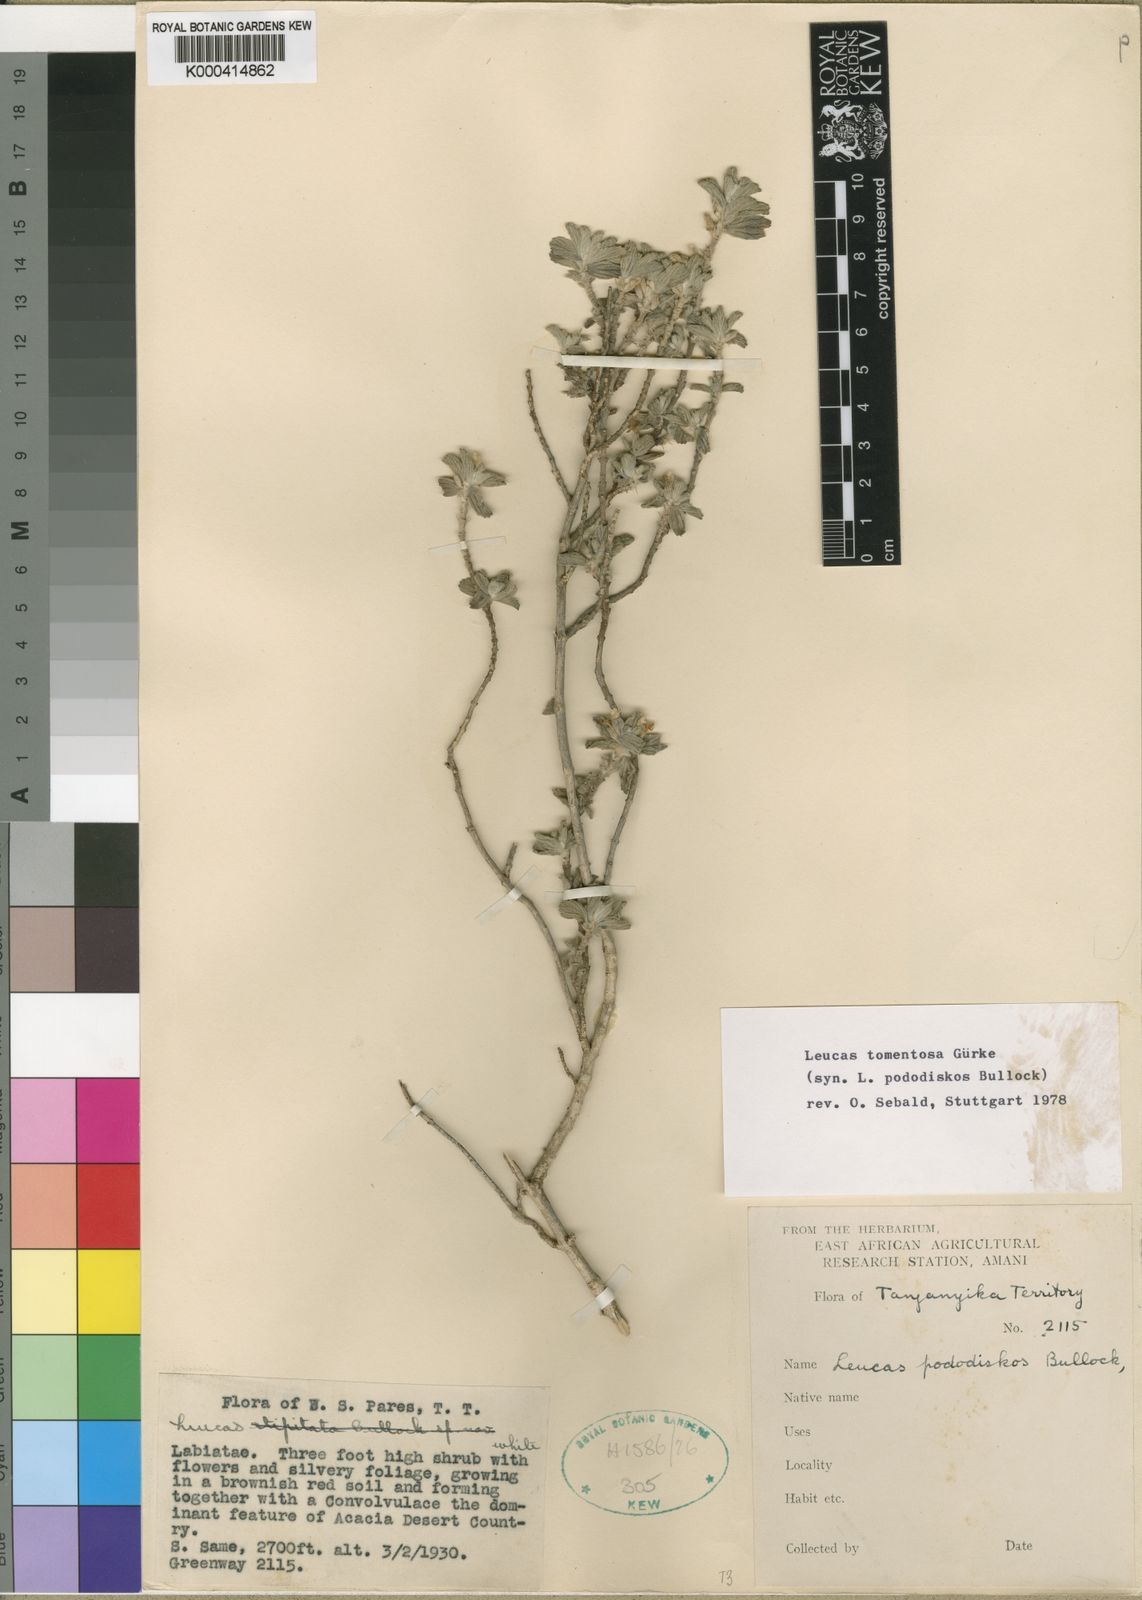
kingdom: Plantae
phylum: Tracheophyta
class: Magnoliopsida
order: Lamiales
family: Lamiaceae
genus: Leucas
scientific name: Leucas tomentosa
